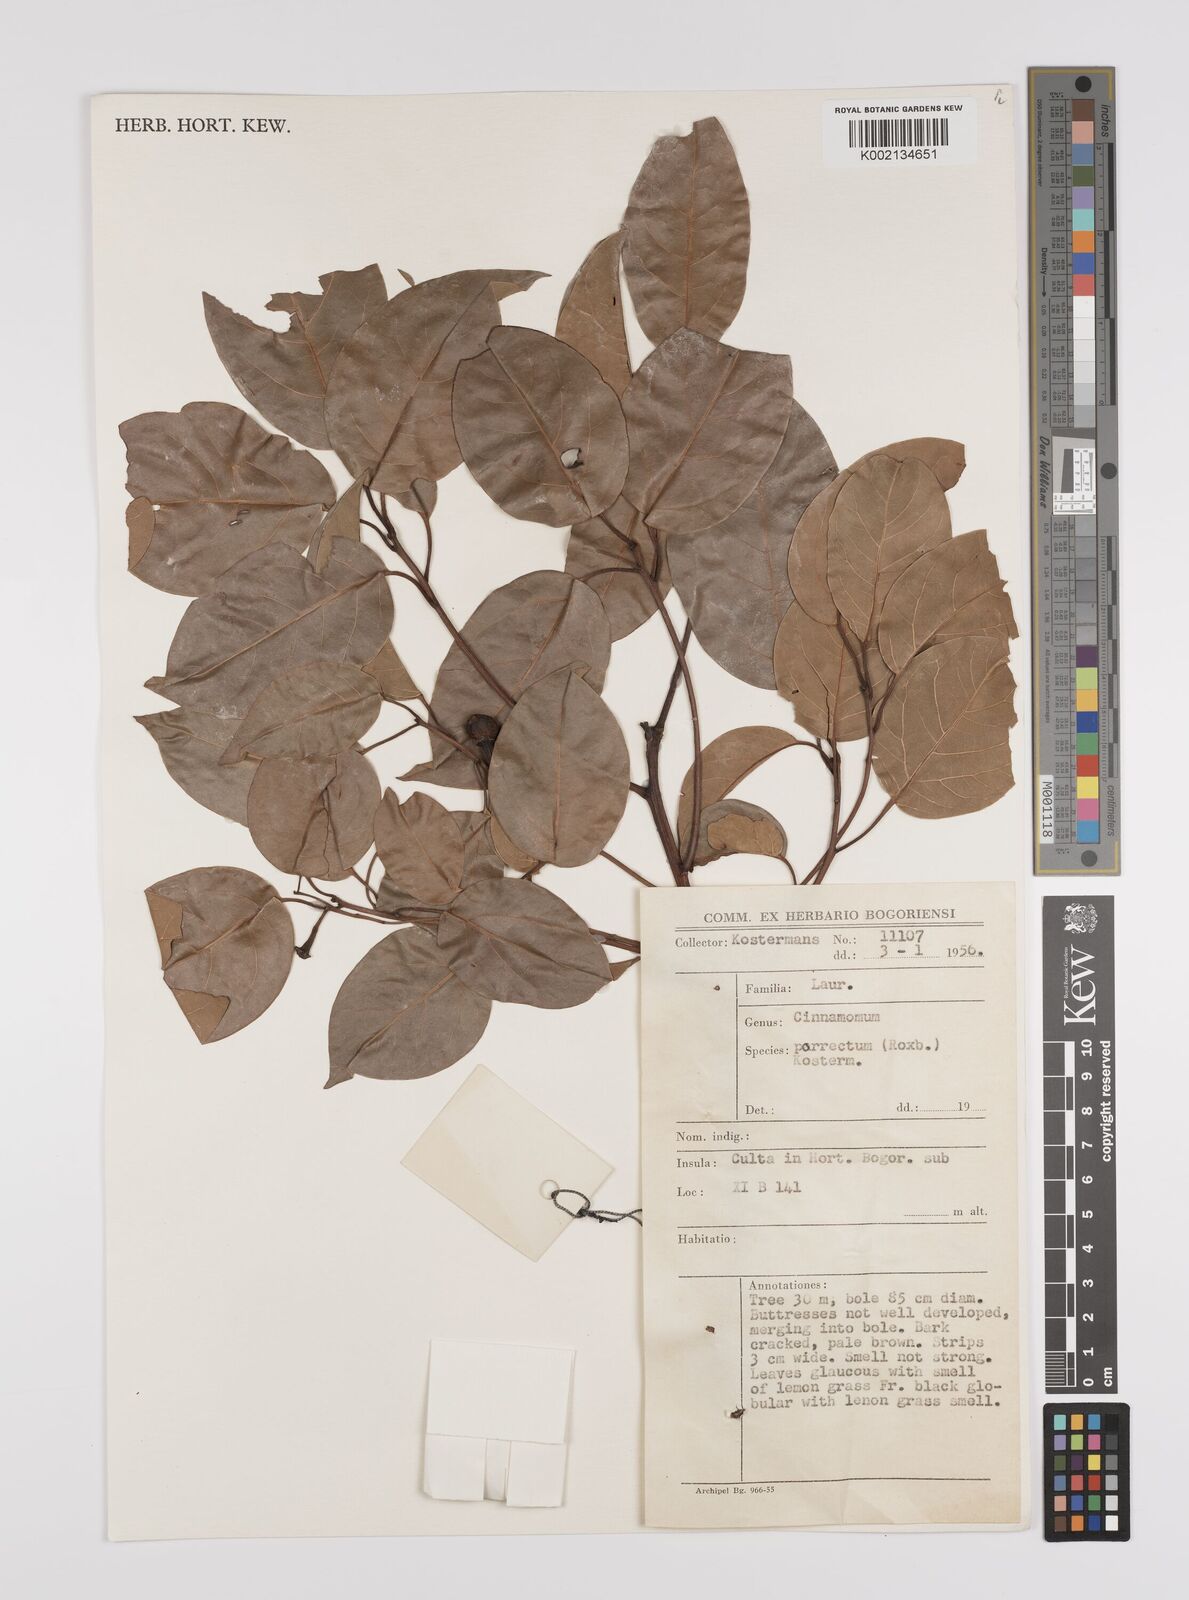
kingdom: Plantae
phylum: Tracheophyta
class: Magnoliopsida
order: Laurales
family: Lauraceae
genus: Cinnamomum
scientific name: Cinnamomum parthenoxylon
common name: Martaban camphor wood
